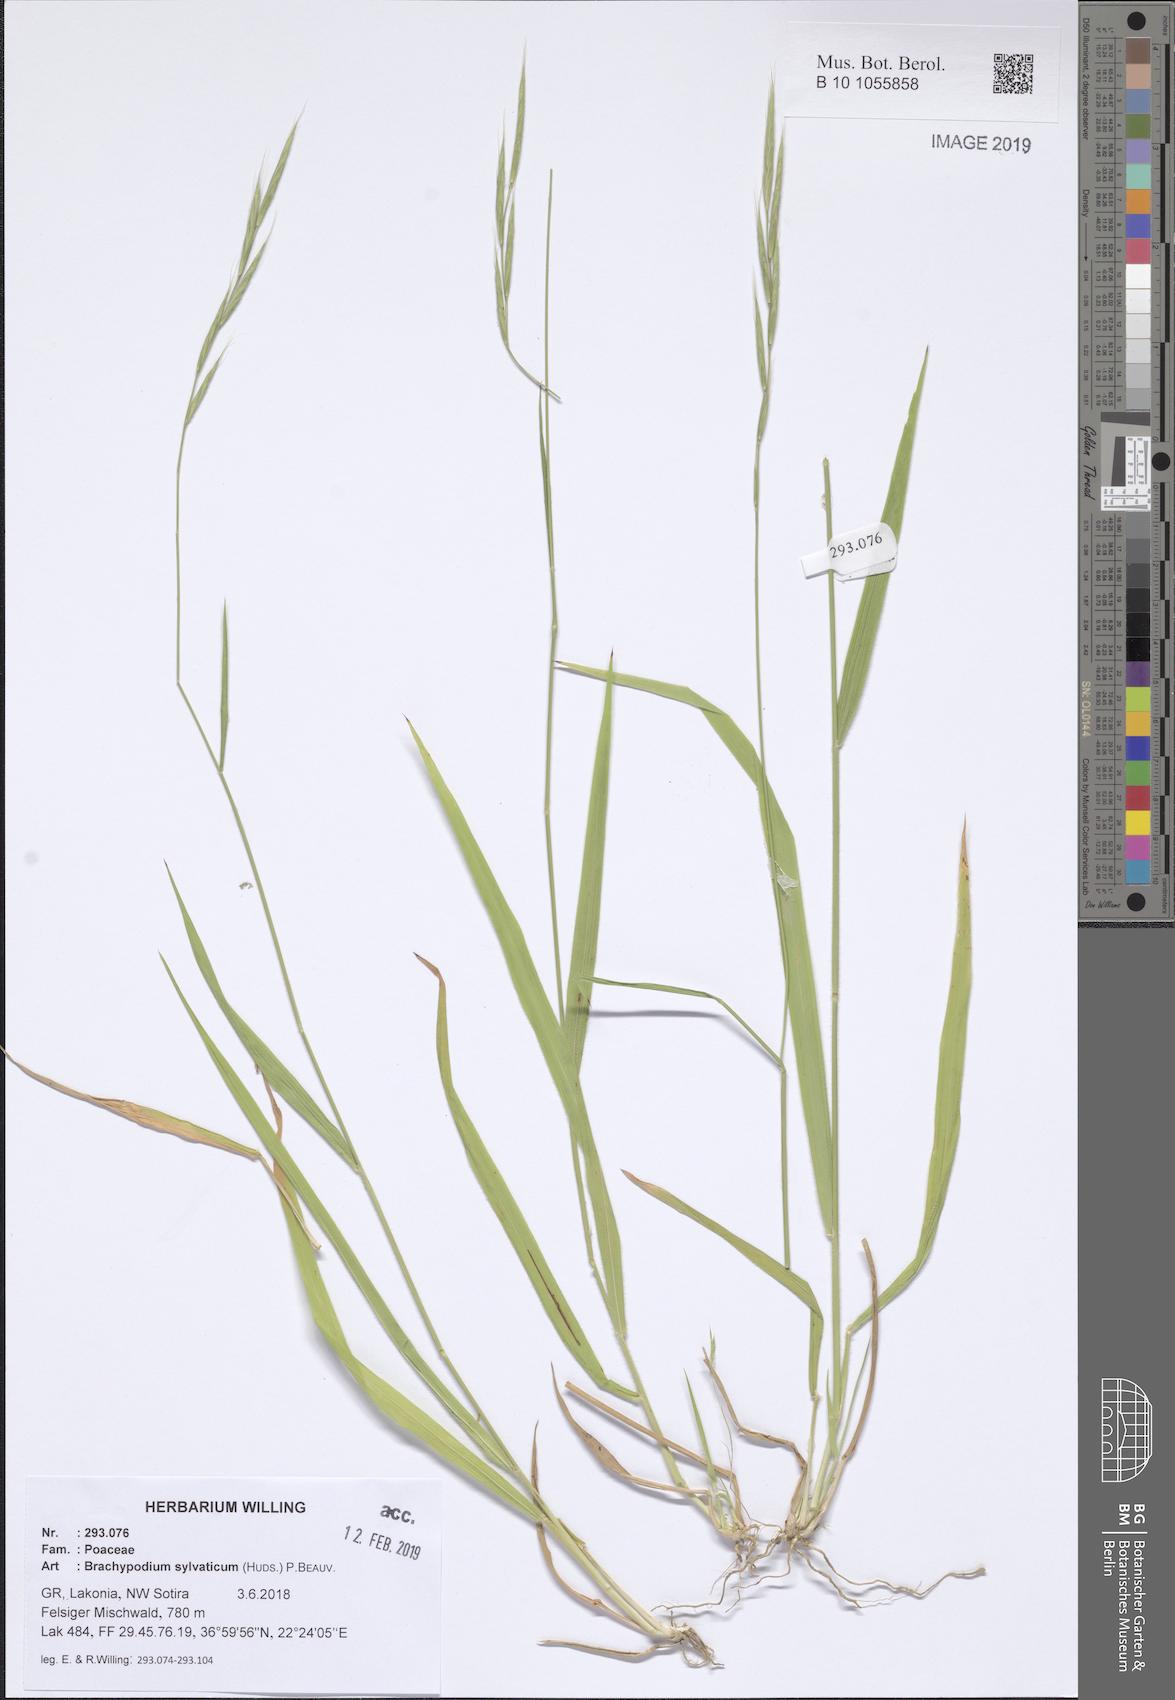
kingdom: Plantae
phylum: Tracheophyta
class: Liliopsida
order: Poales
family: Poaceae
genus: Brachypodium
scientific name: Brachypodium sylvaticum
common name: False-brome
